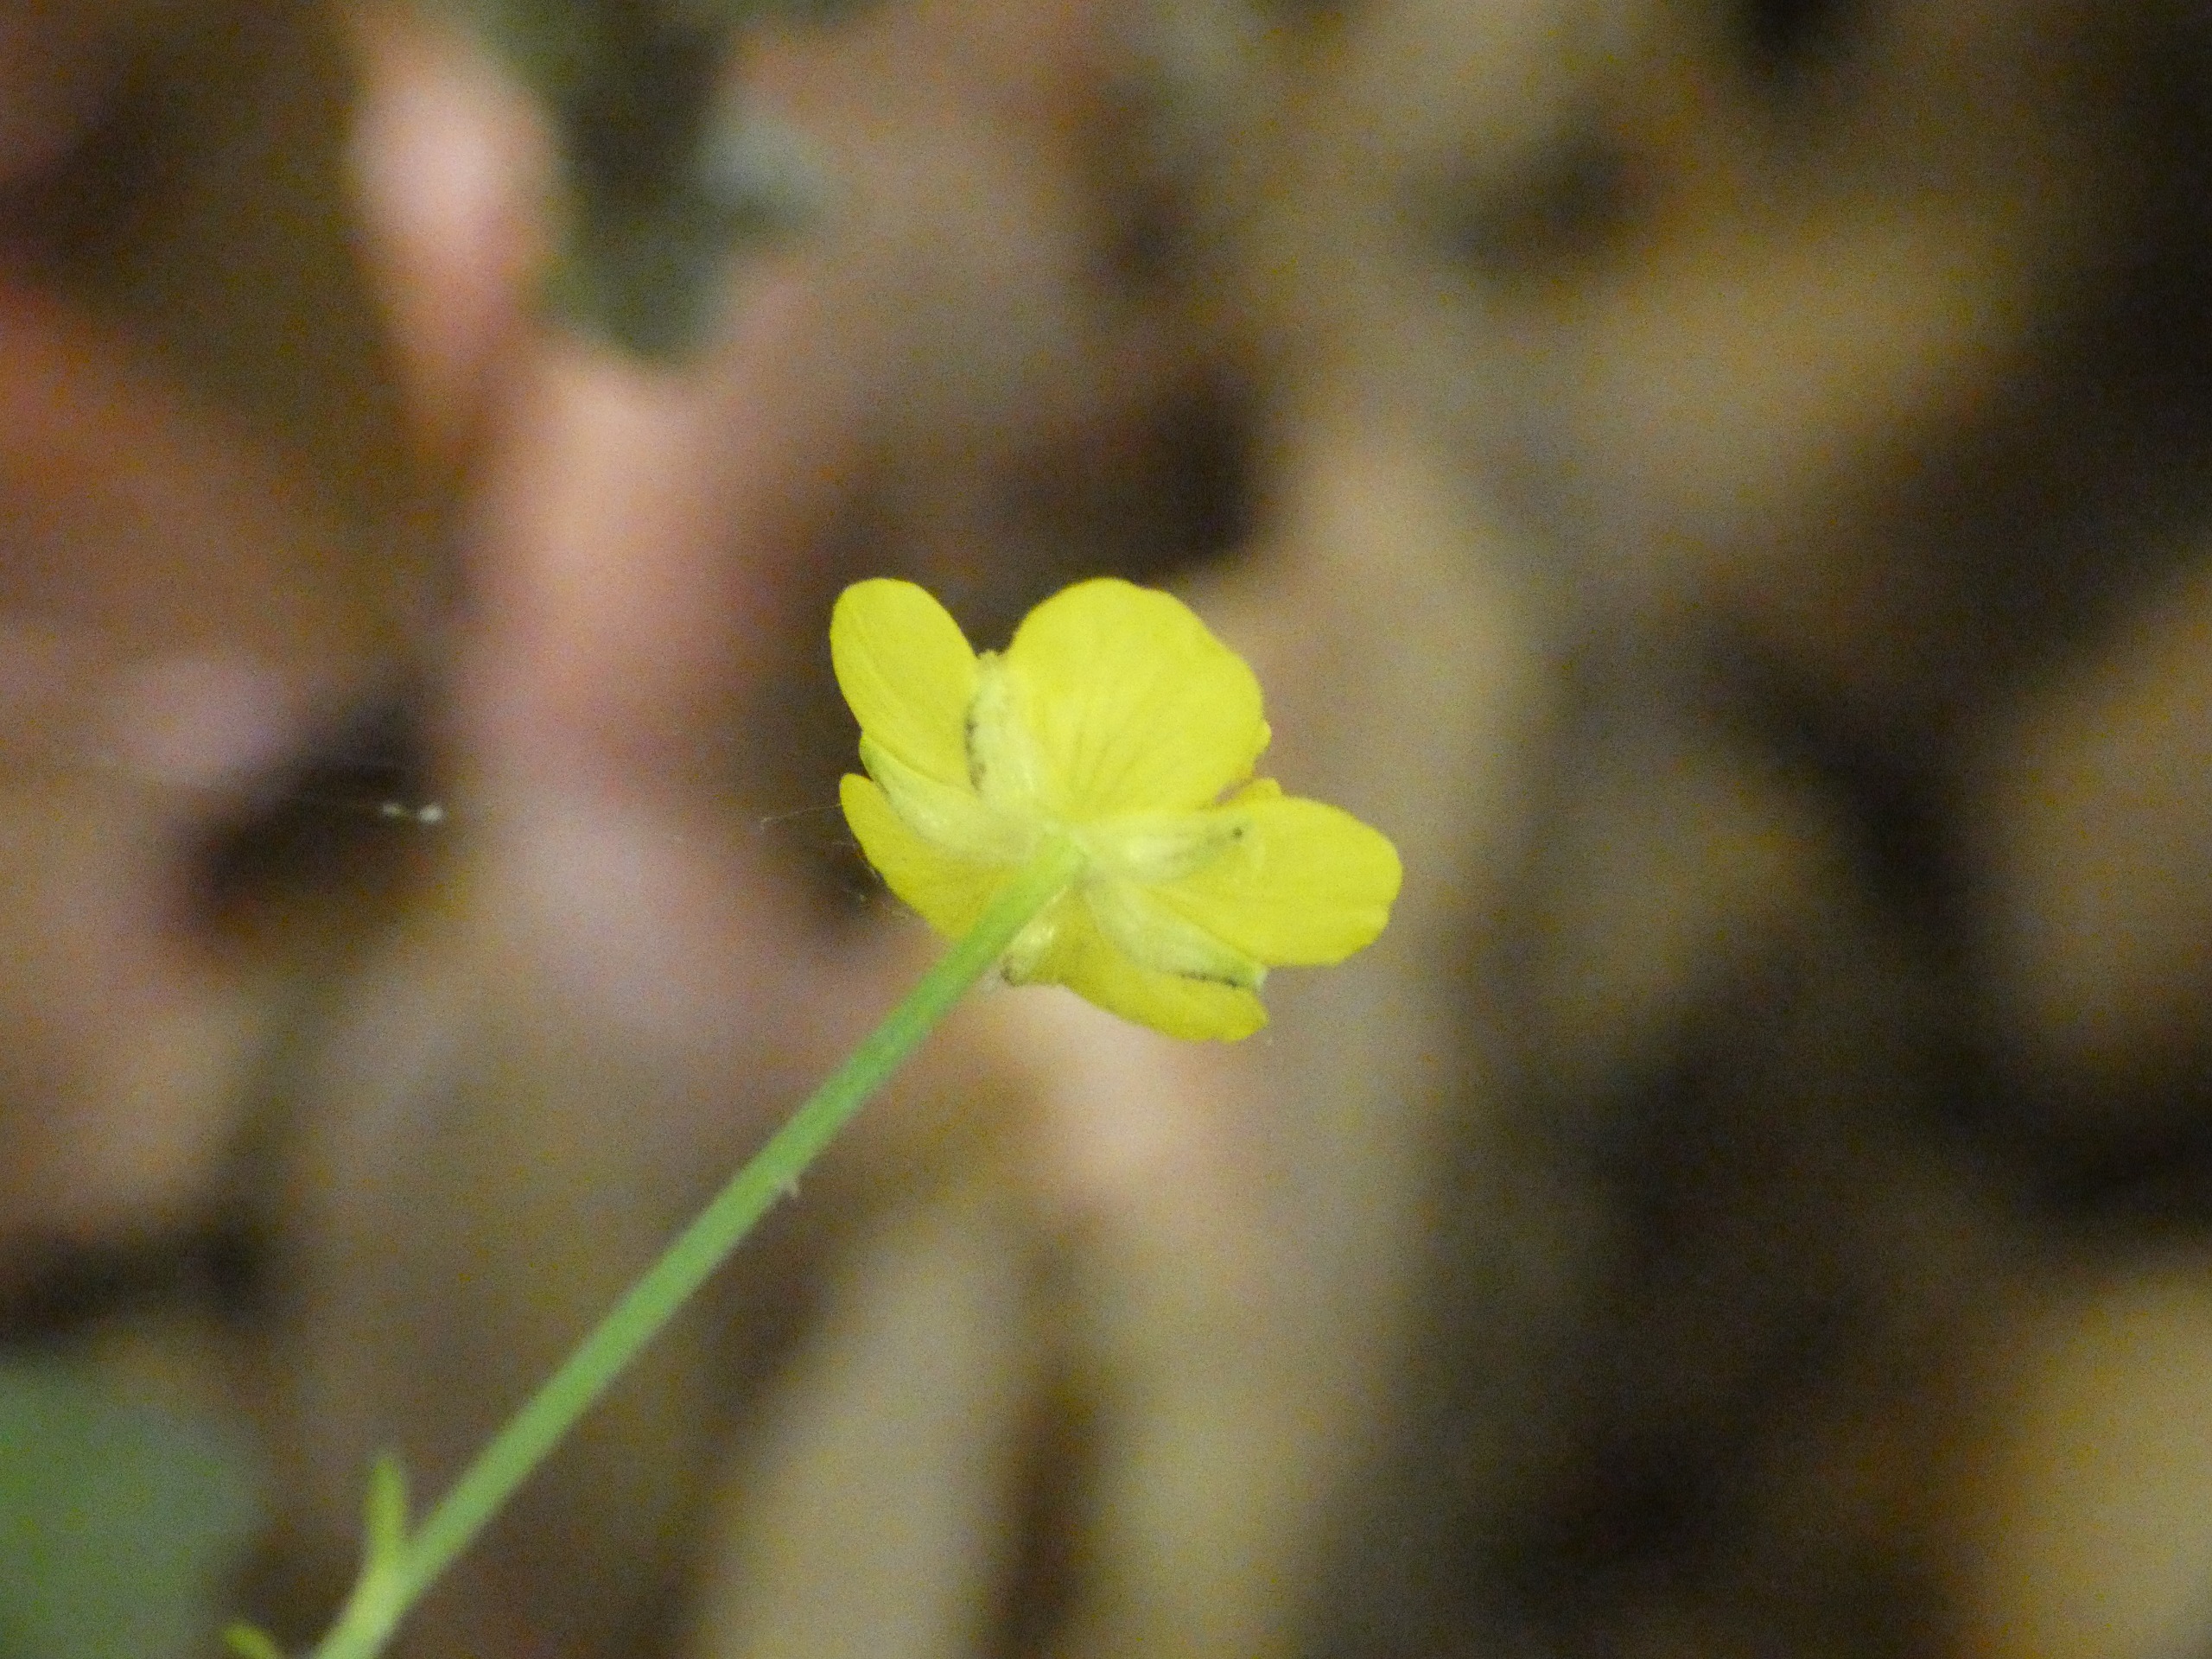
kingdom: Plantae
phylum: Tracheophyta
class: Magnoliopsida
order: Ranunculales
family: Ranunculaceae
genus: Ranunculus
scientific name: Ranunculus repens
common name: Lav ranunkel
